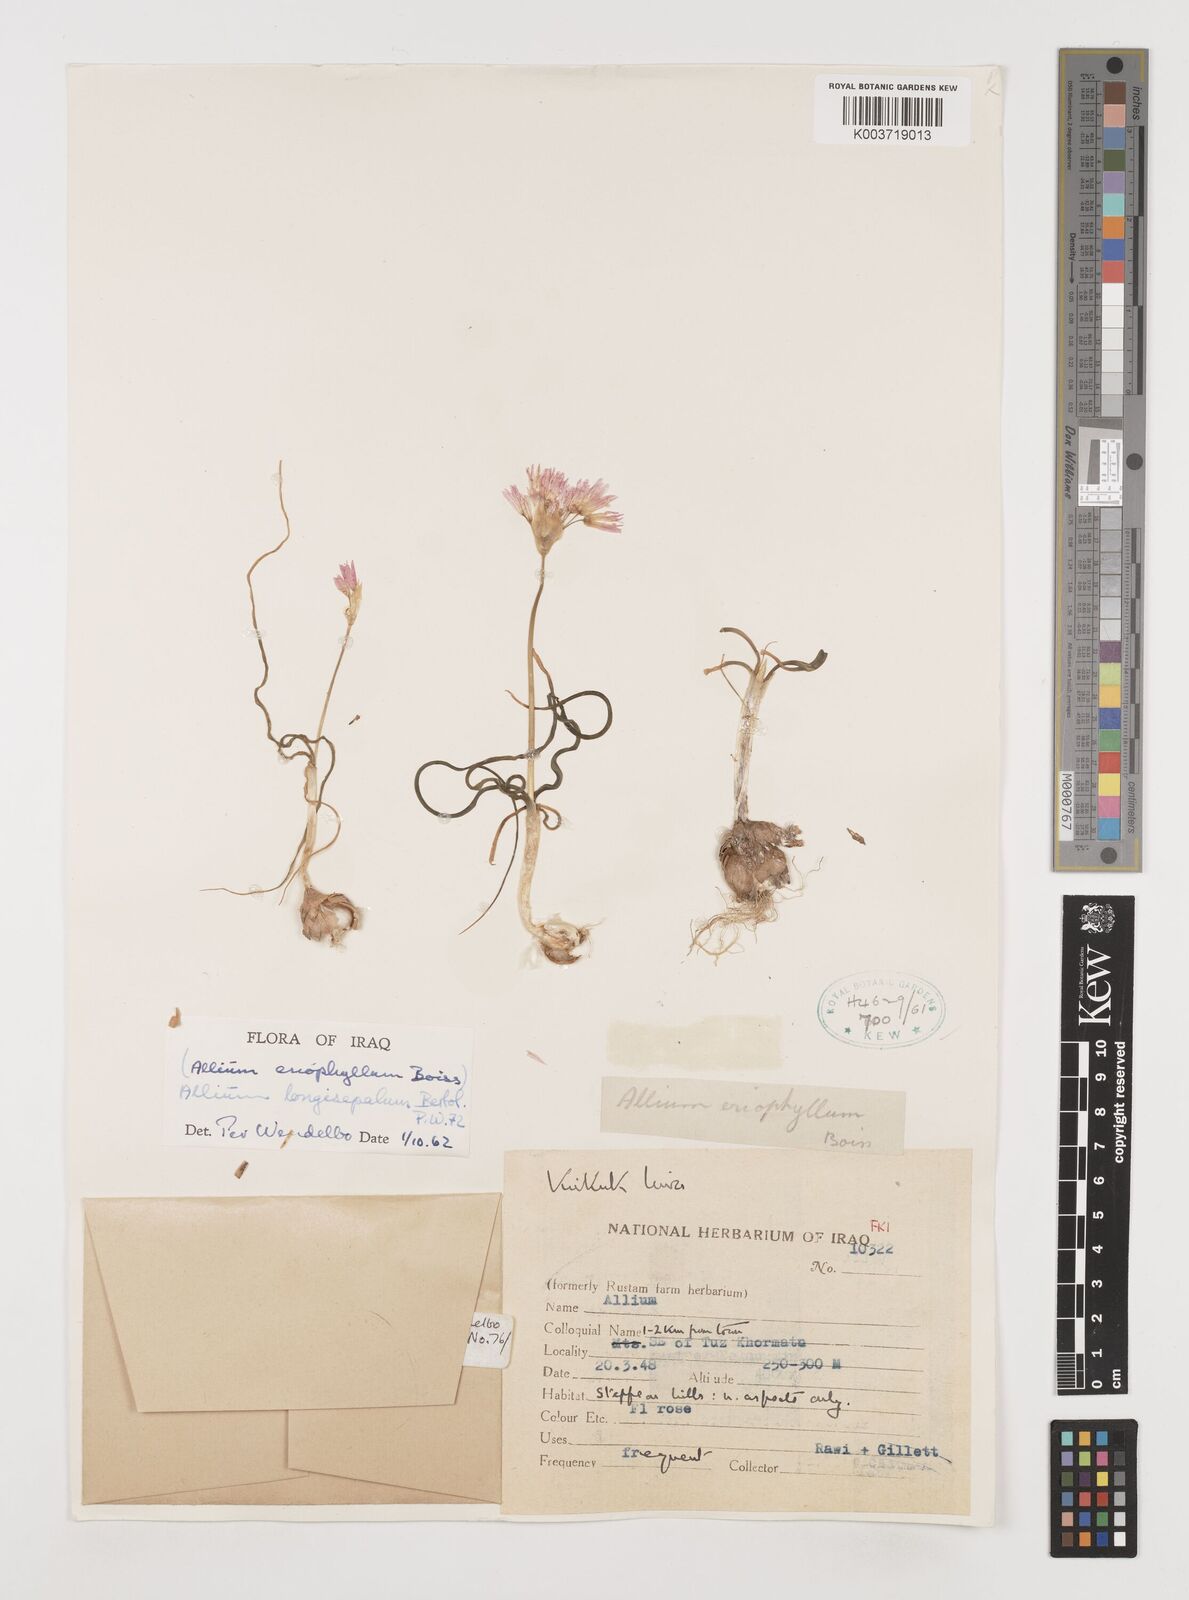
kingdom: Plantae
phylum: Tracheophyta
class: Liliopsida
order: Asparagales
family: Amaryllidaceae
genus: Allium
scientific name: Allium longisepalum
